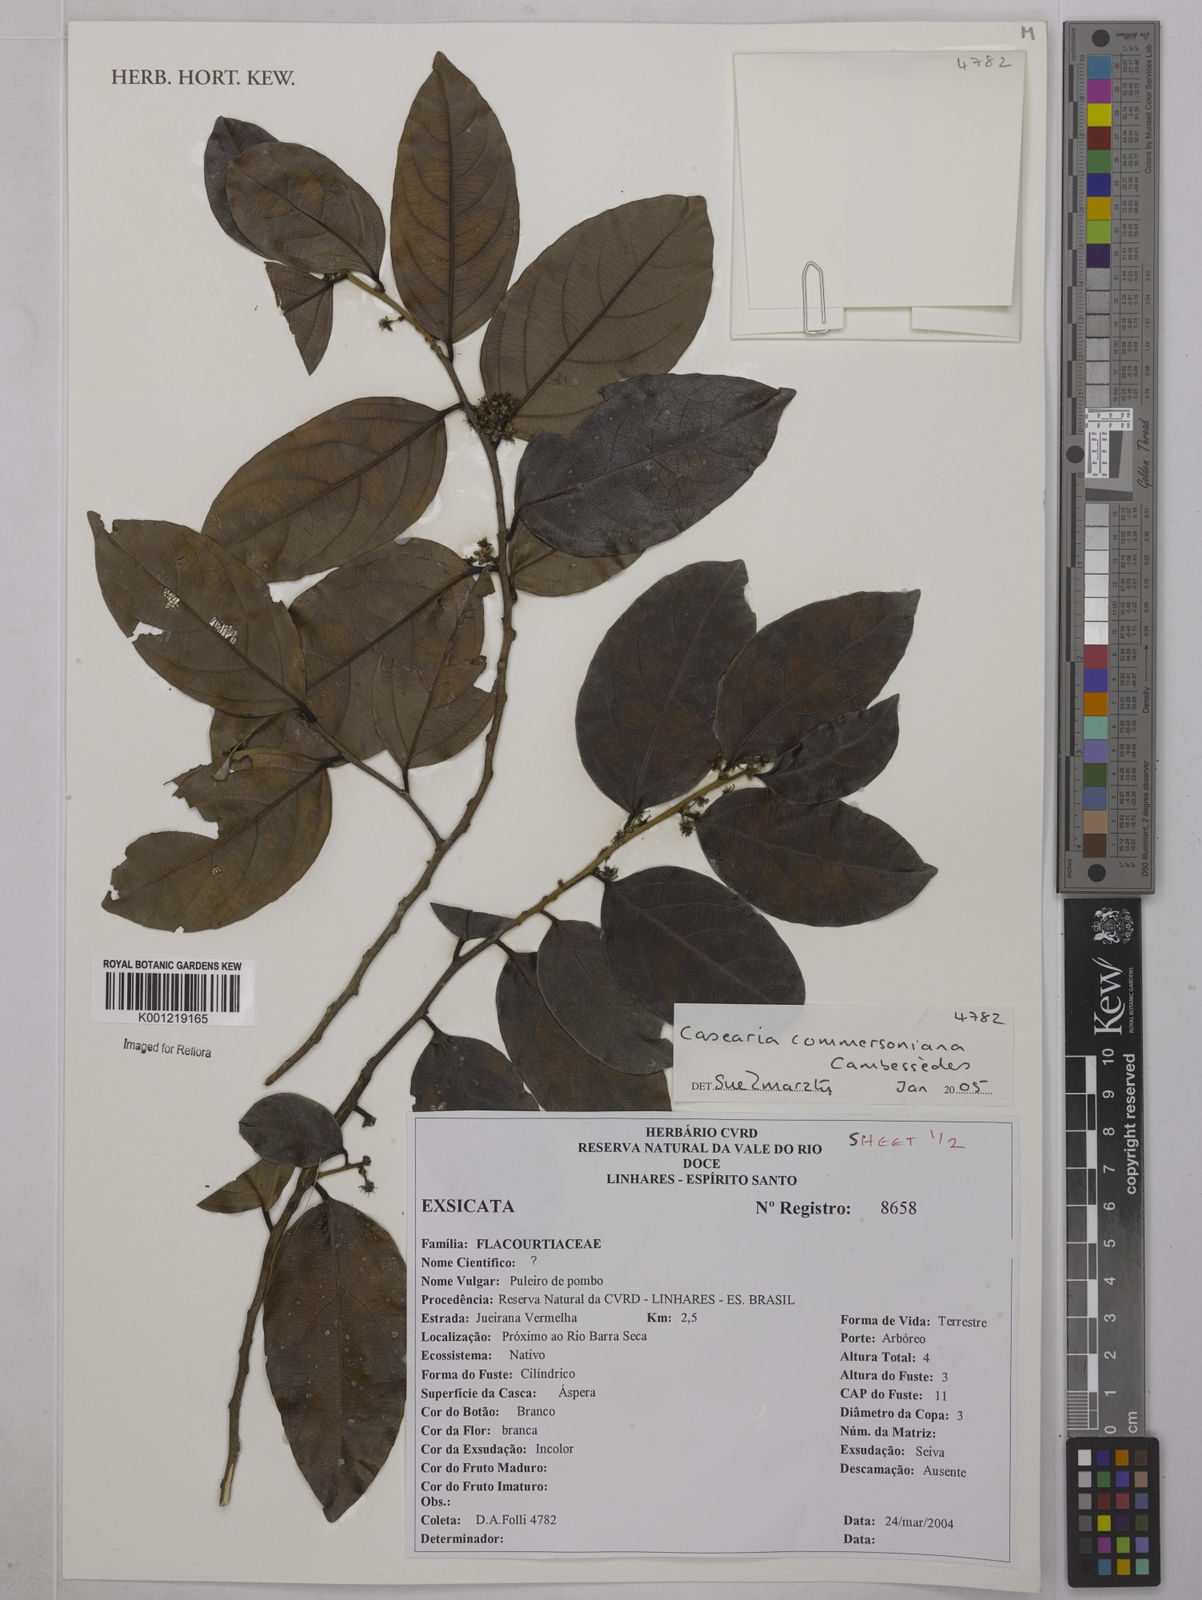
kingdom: Plantae
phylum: Tracheophyta
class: Magnoliopsida
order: Malpighiales
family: Salicaceae
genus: Piparea
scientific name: Piparea dentata
